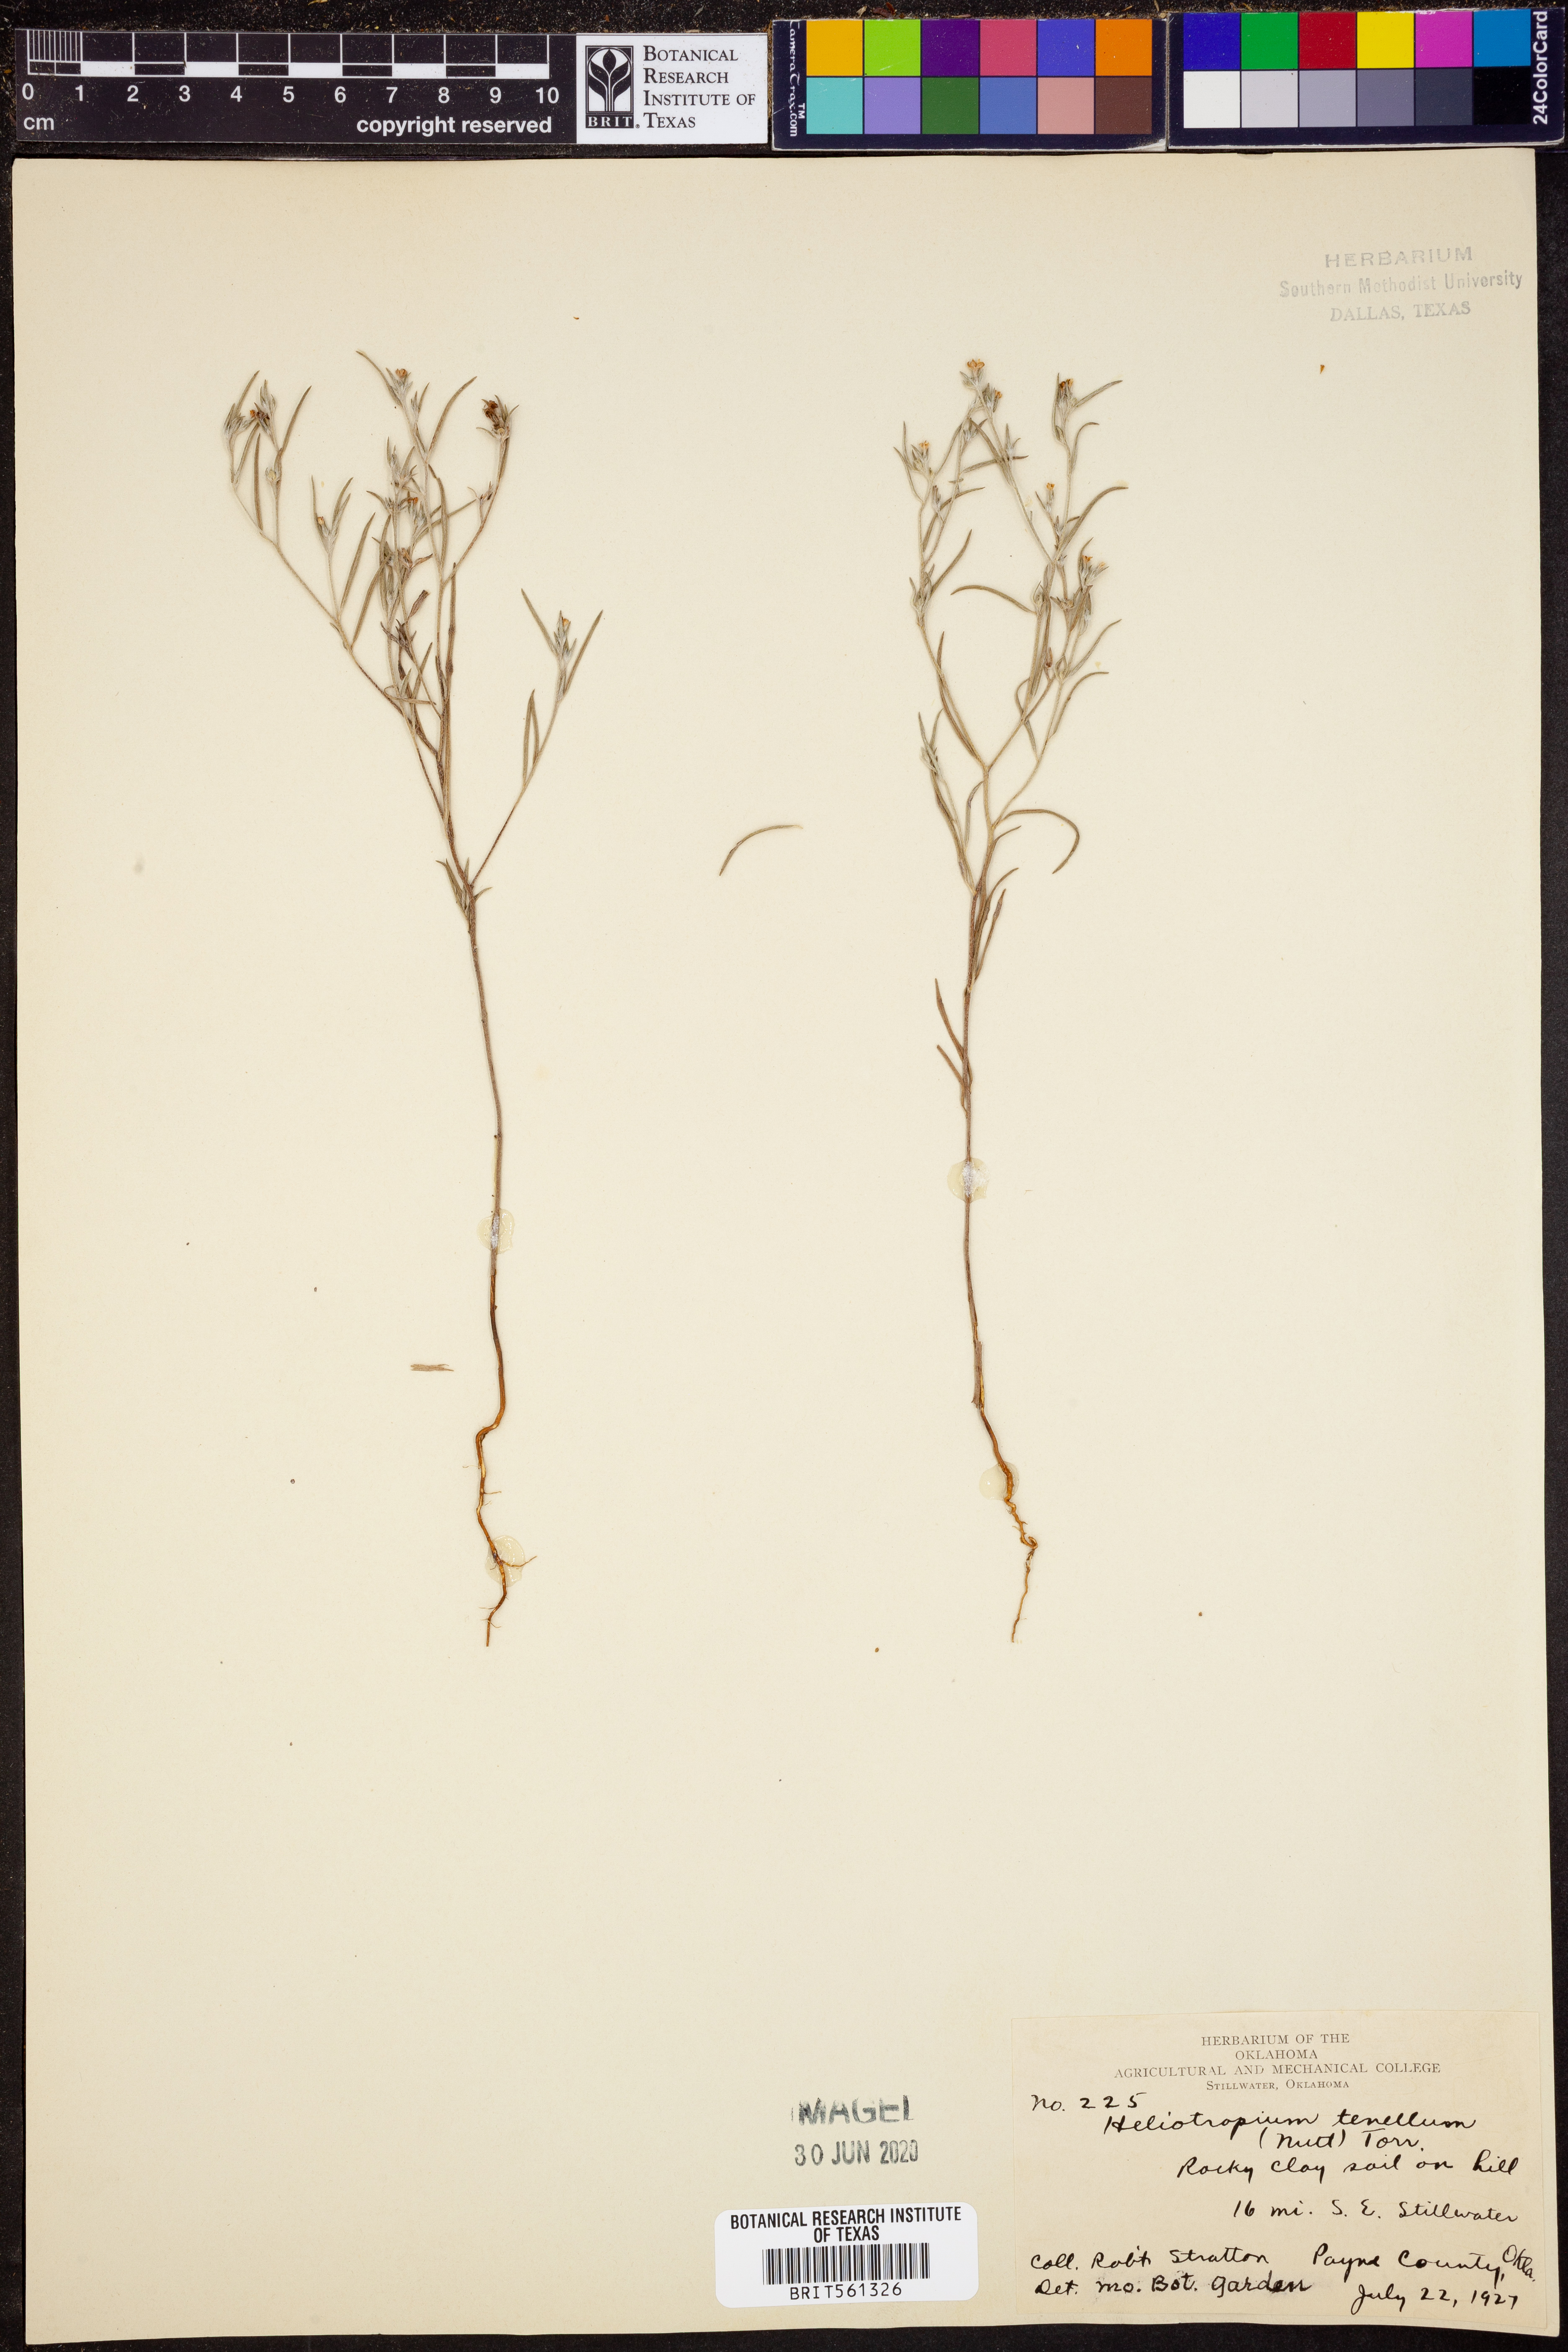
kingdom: Plantae
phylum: Tracheophyta
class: Magnoliopsida
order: Boraginales
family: Heliotropiaceae
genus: Euploca
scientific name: Euploca tenella
